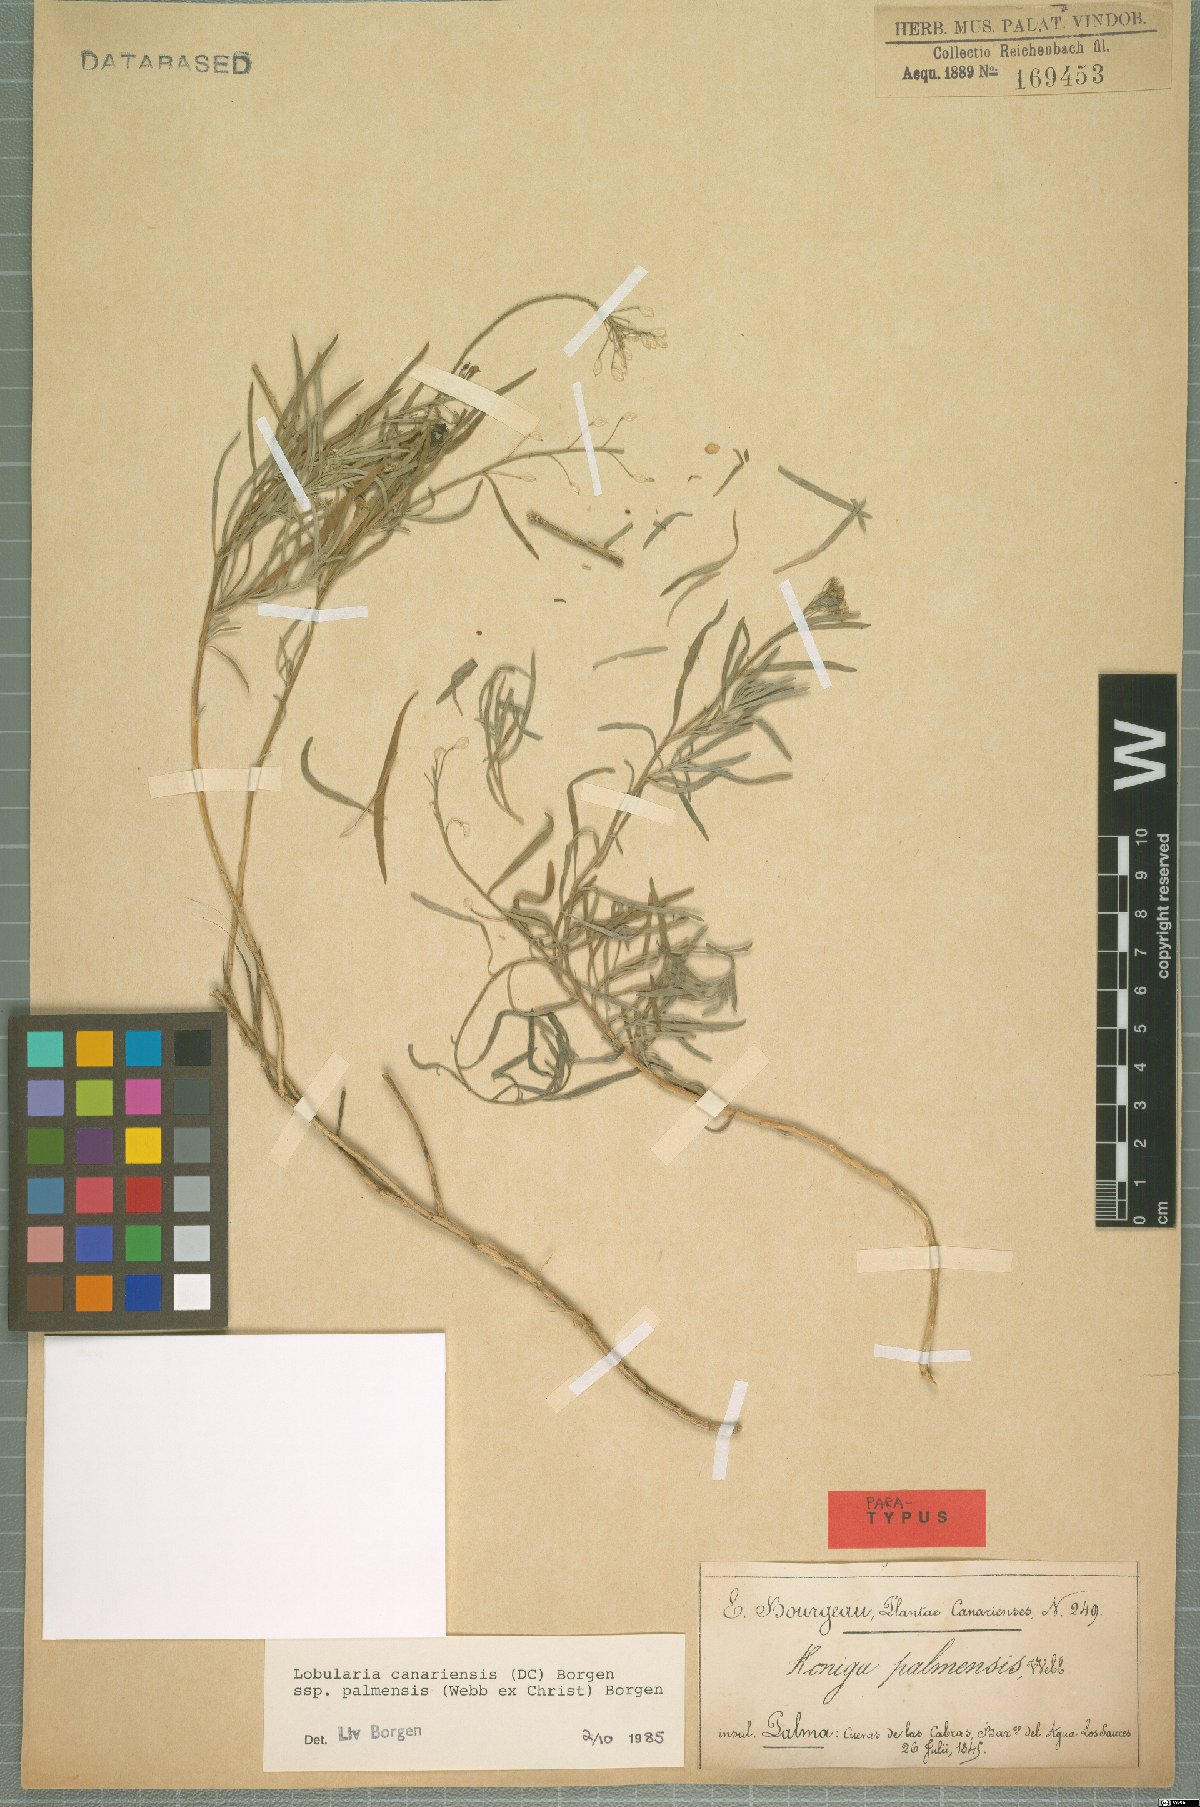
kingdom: Plantae
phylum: Tracheophyta
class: Magnoliopsida
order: Brassicales
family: Brassicaceae
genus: Lobularia
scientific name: Lobularia canariensis
